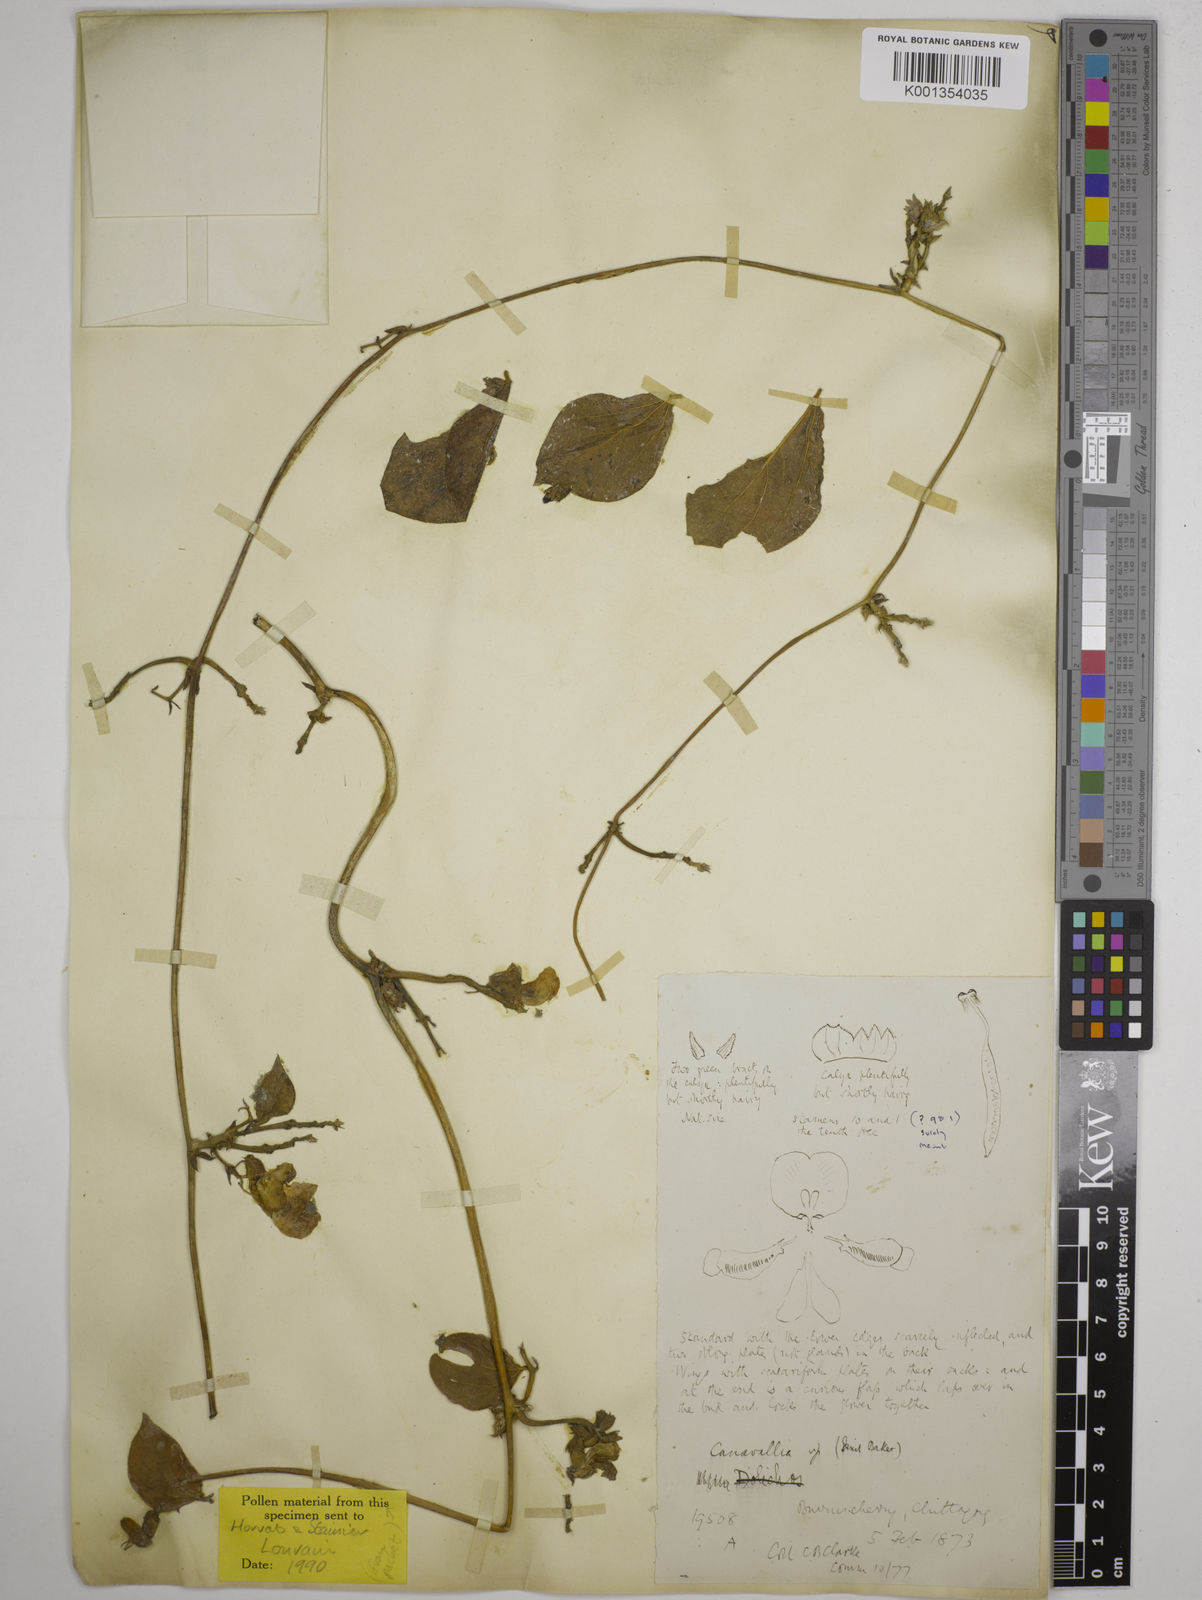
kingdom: Plantae
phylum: Tracheophyta
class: Magnoliopsida
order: Fabales
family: Fabaceae
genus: Wajira
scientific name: Wajira grahamiana
